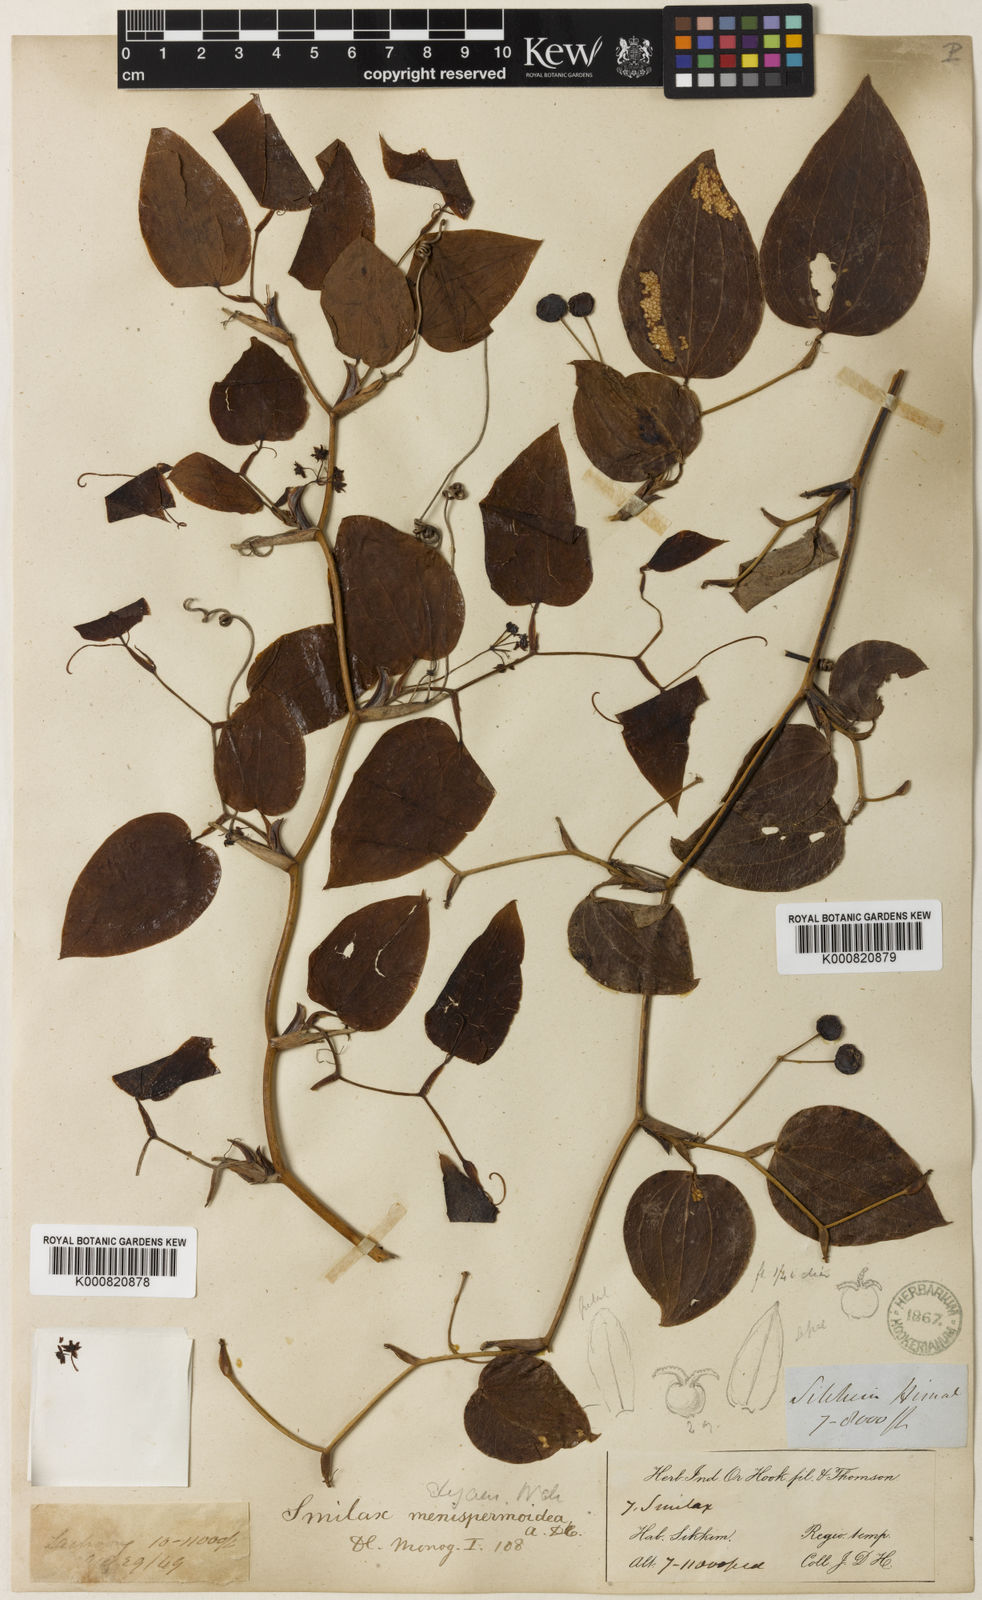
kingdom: Plantae
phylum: Tracheophyta
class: Liliopsida
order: Liliales
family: Smilacaceae
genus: Smilax
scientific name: Smilax menispermoidea
